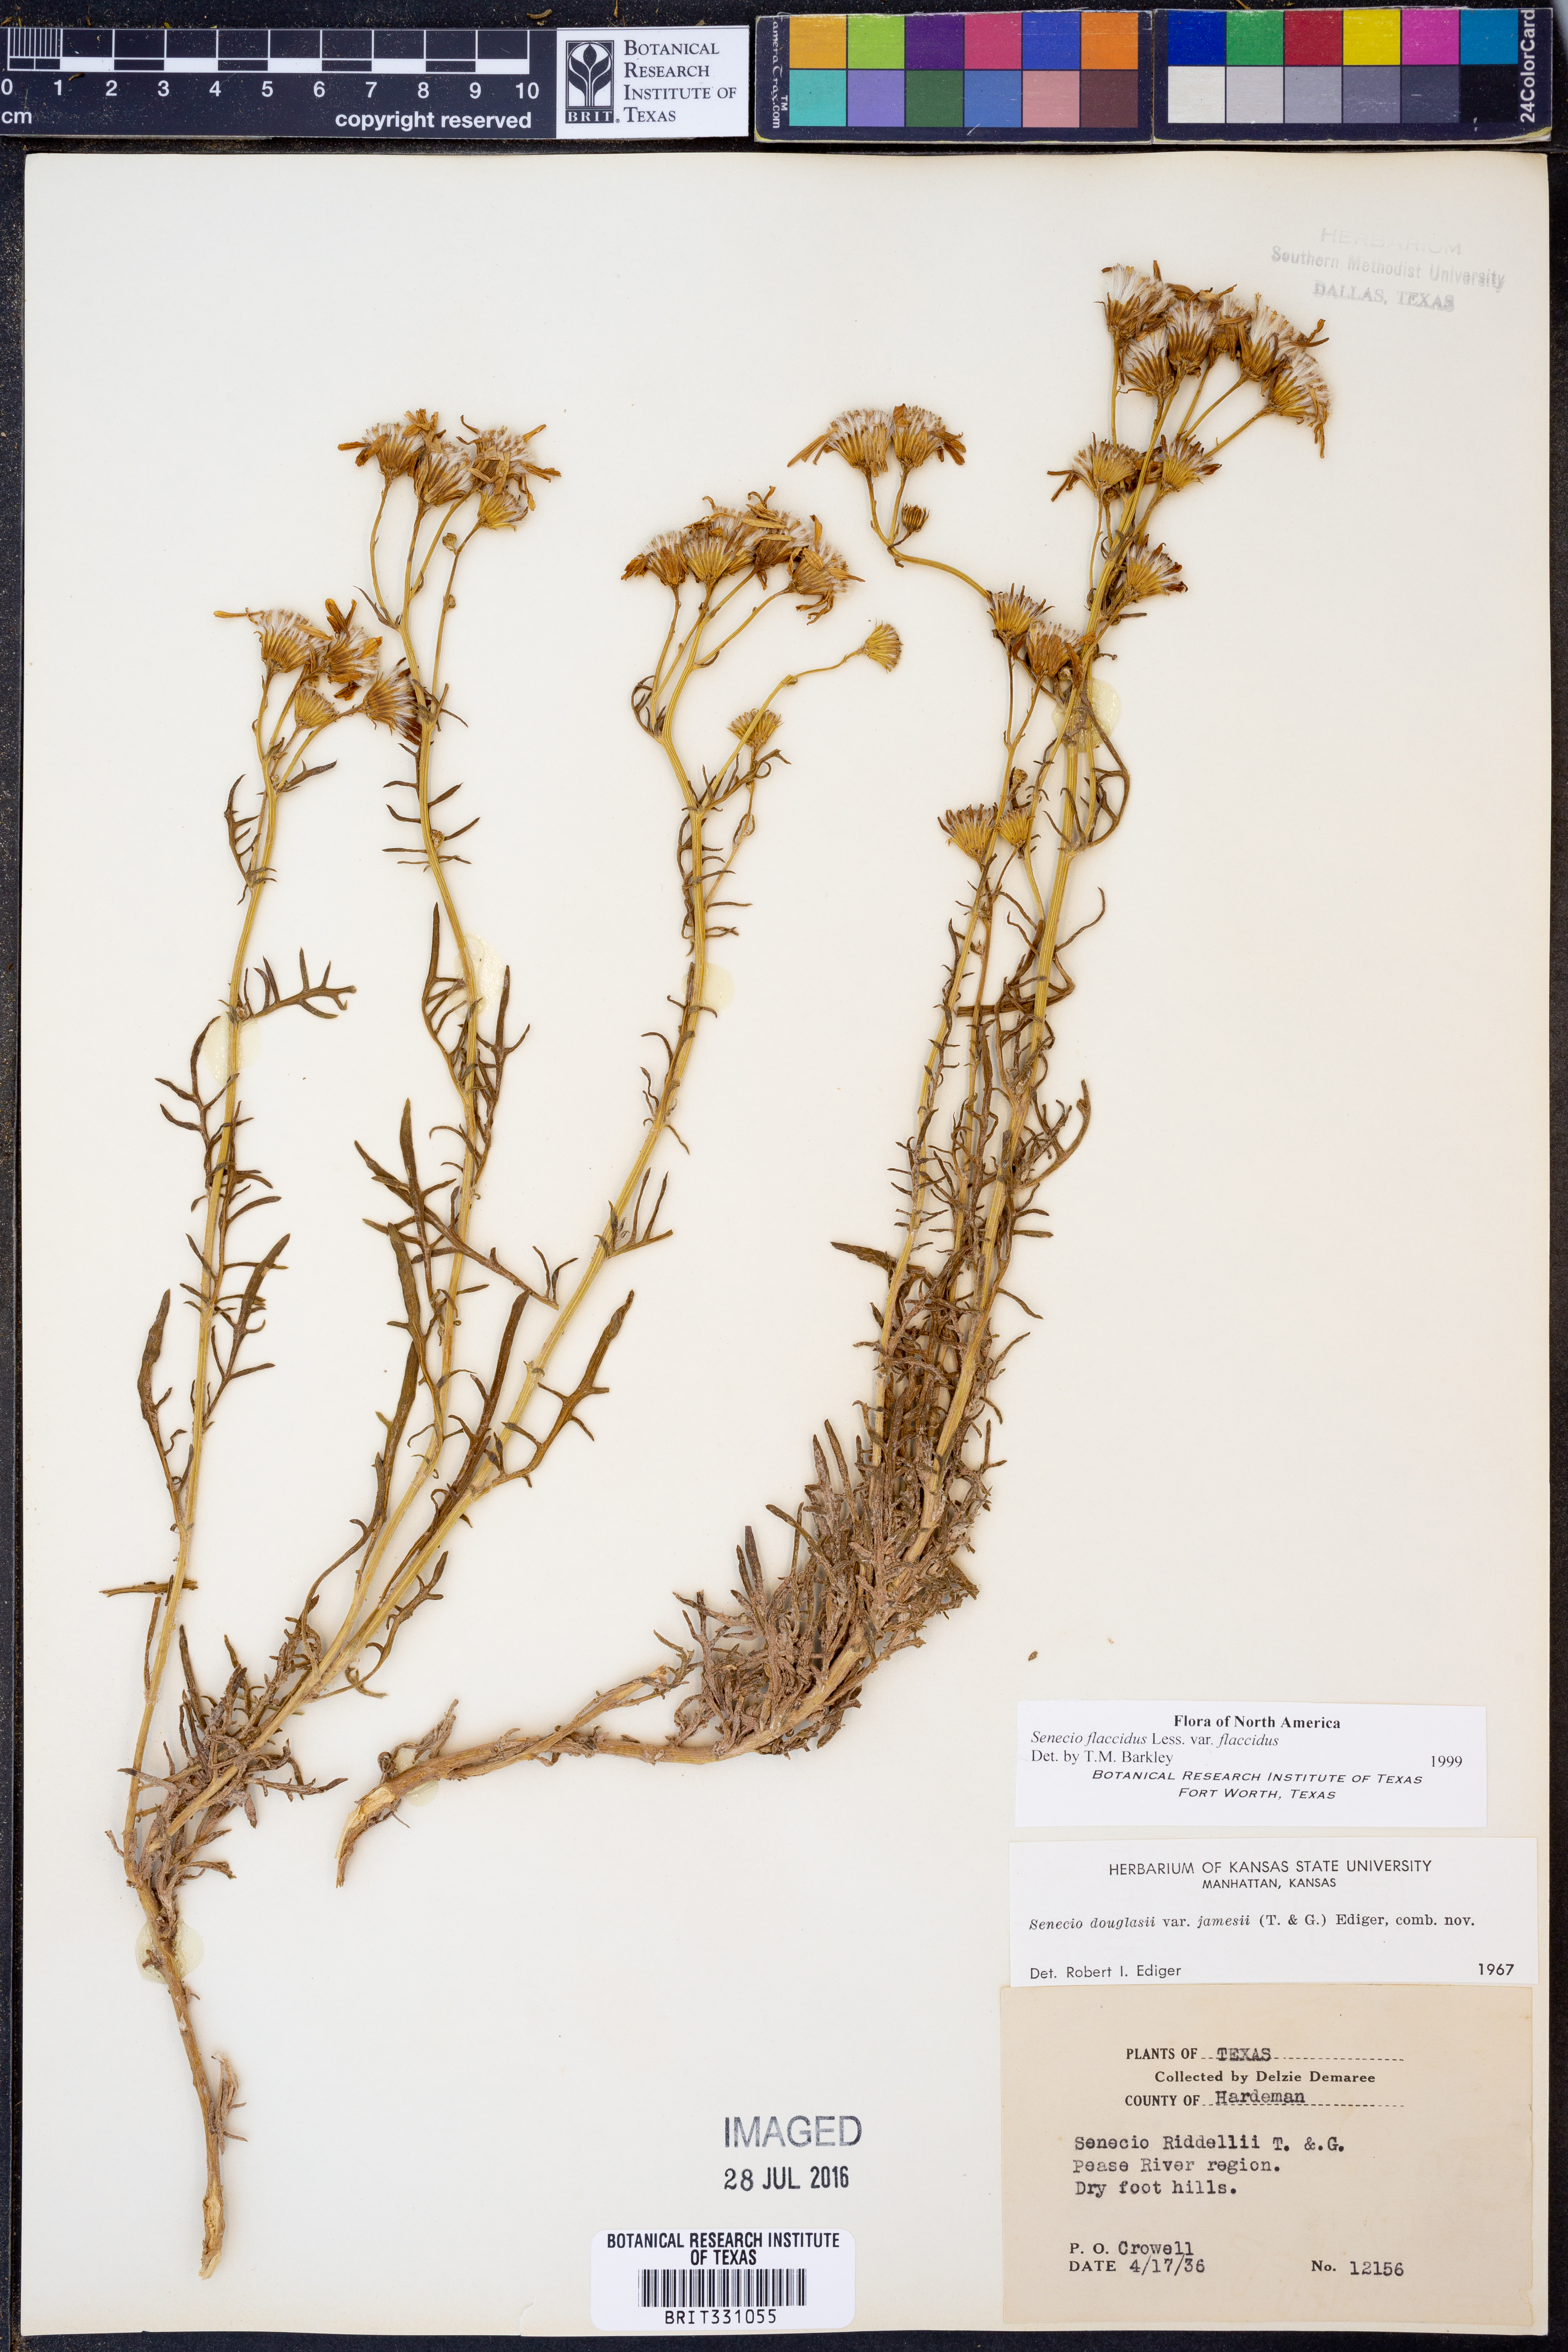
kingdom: Plantae
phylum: Tracheophyta
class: Magnoliopsida
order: Asterales
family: Asteraceae
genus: Senecio
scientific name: Senecio flaccidus
